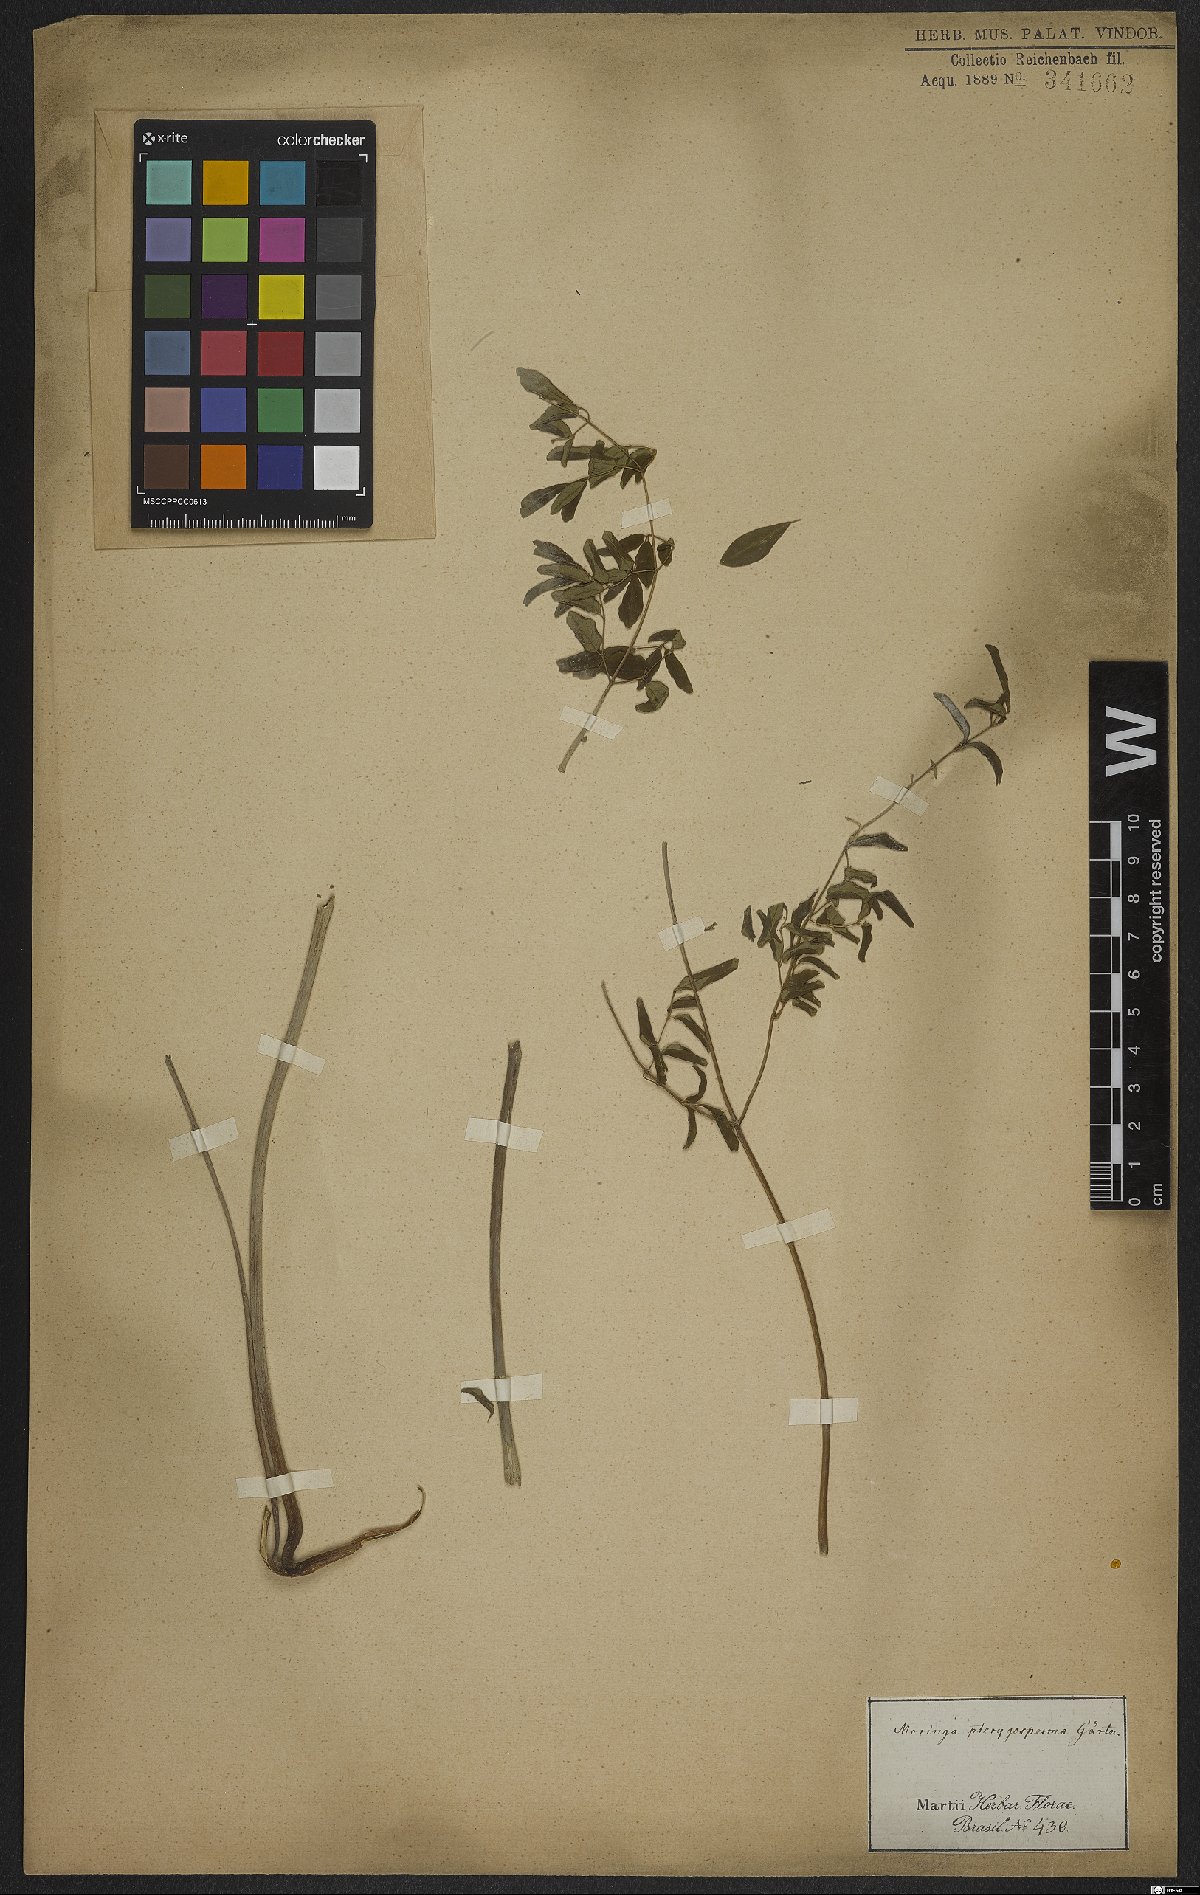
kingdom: Plantae
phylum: Tracheophyta
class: Magnoliopsida
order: Brassicales
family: Moringaceae
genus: Moringa
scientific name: Moringa oleifera
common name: Horseradish-tree
